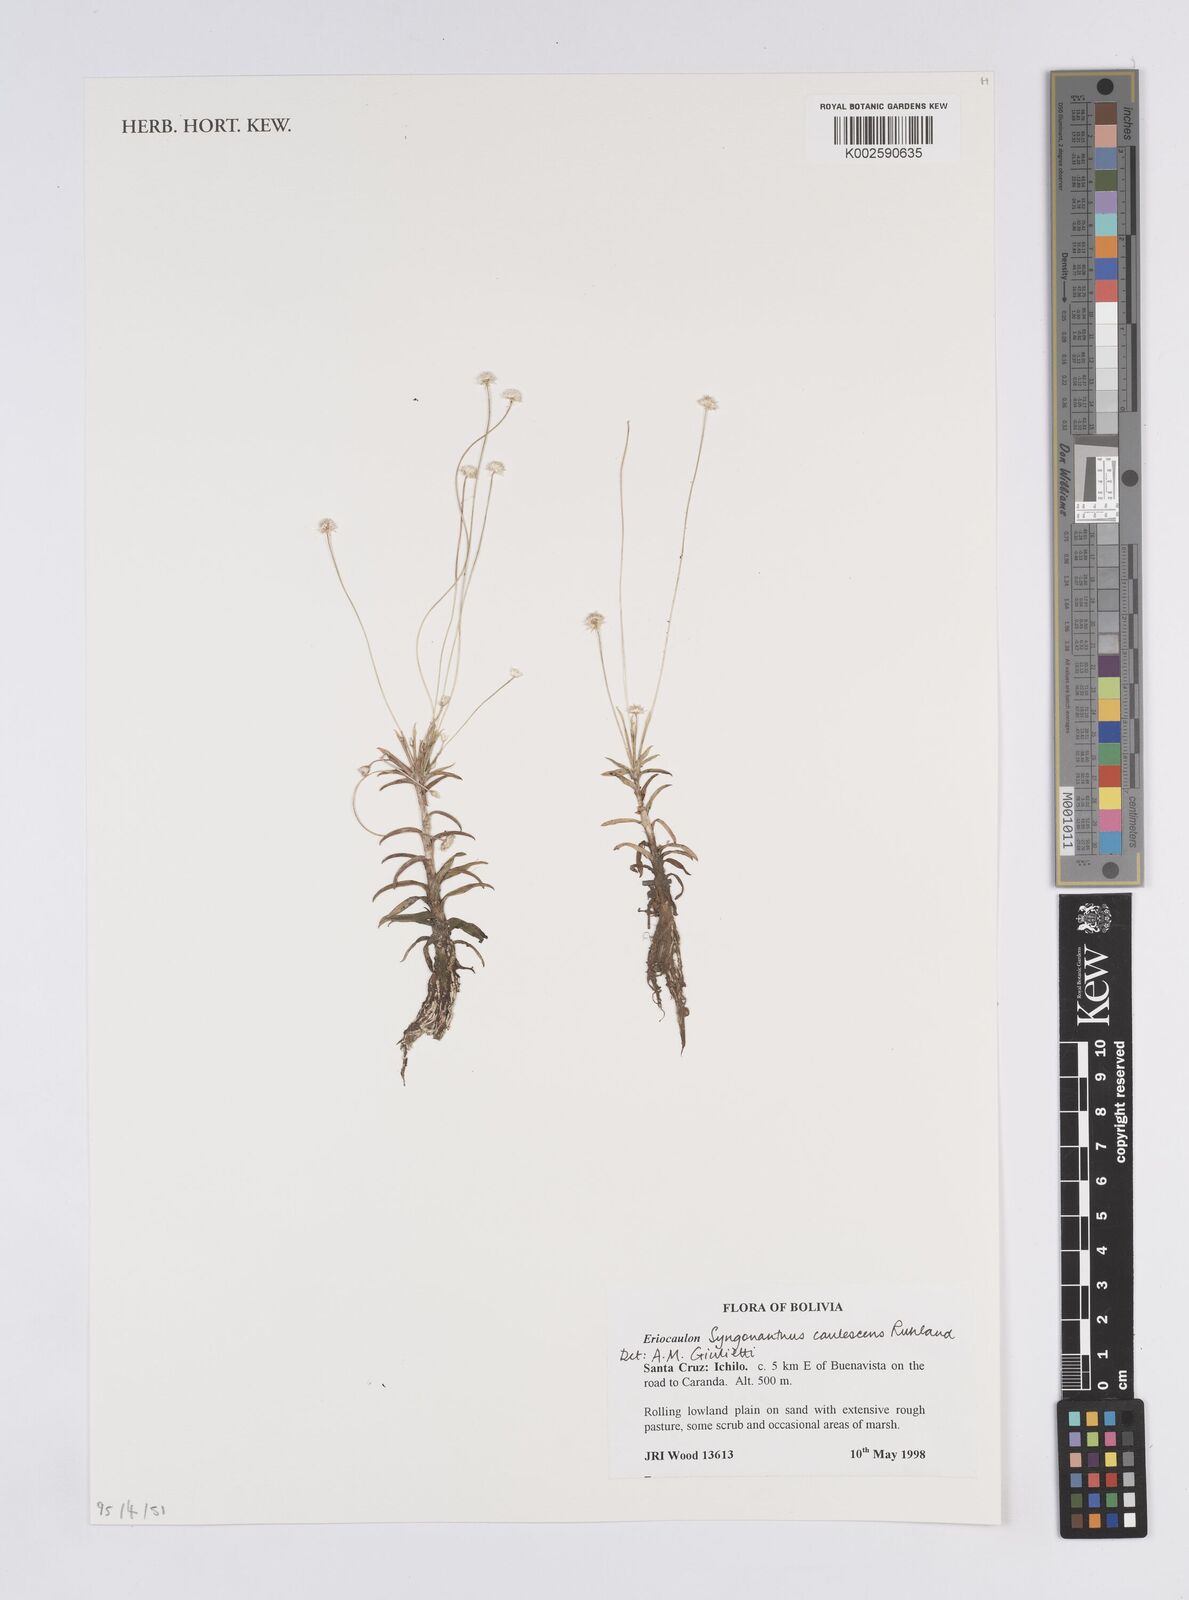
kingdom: Plantae
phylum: Tracheophyta
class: Liliopsida
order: Poales
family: Eriocaulaceae
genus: Syngonanthus
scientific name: Syngonanthus caulescens
